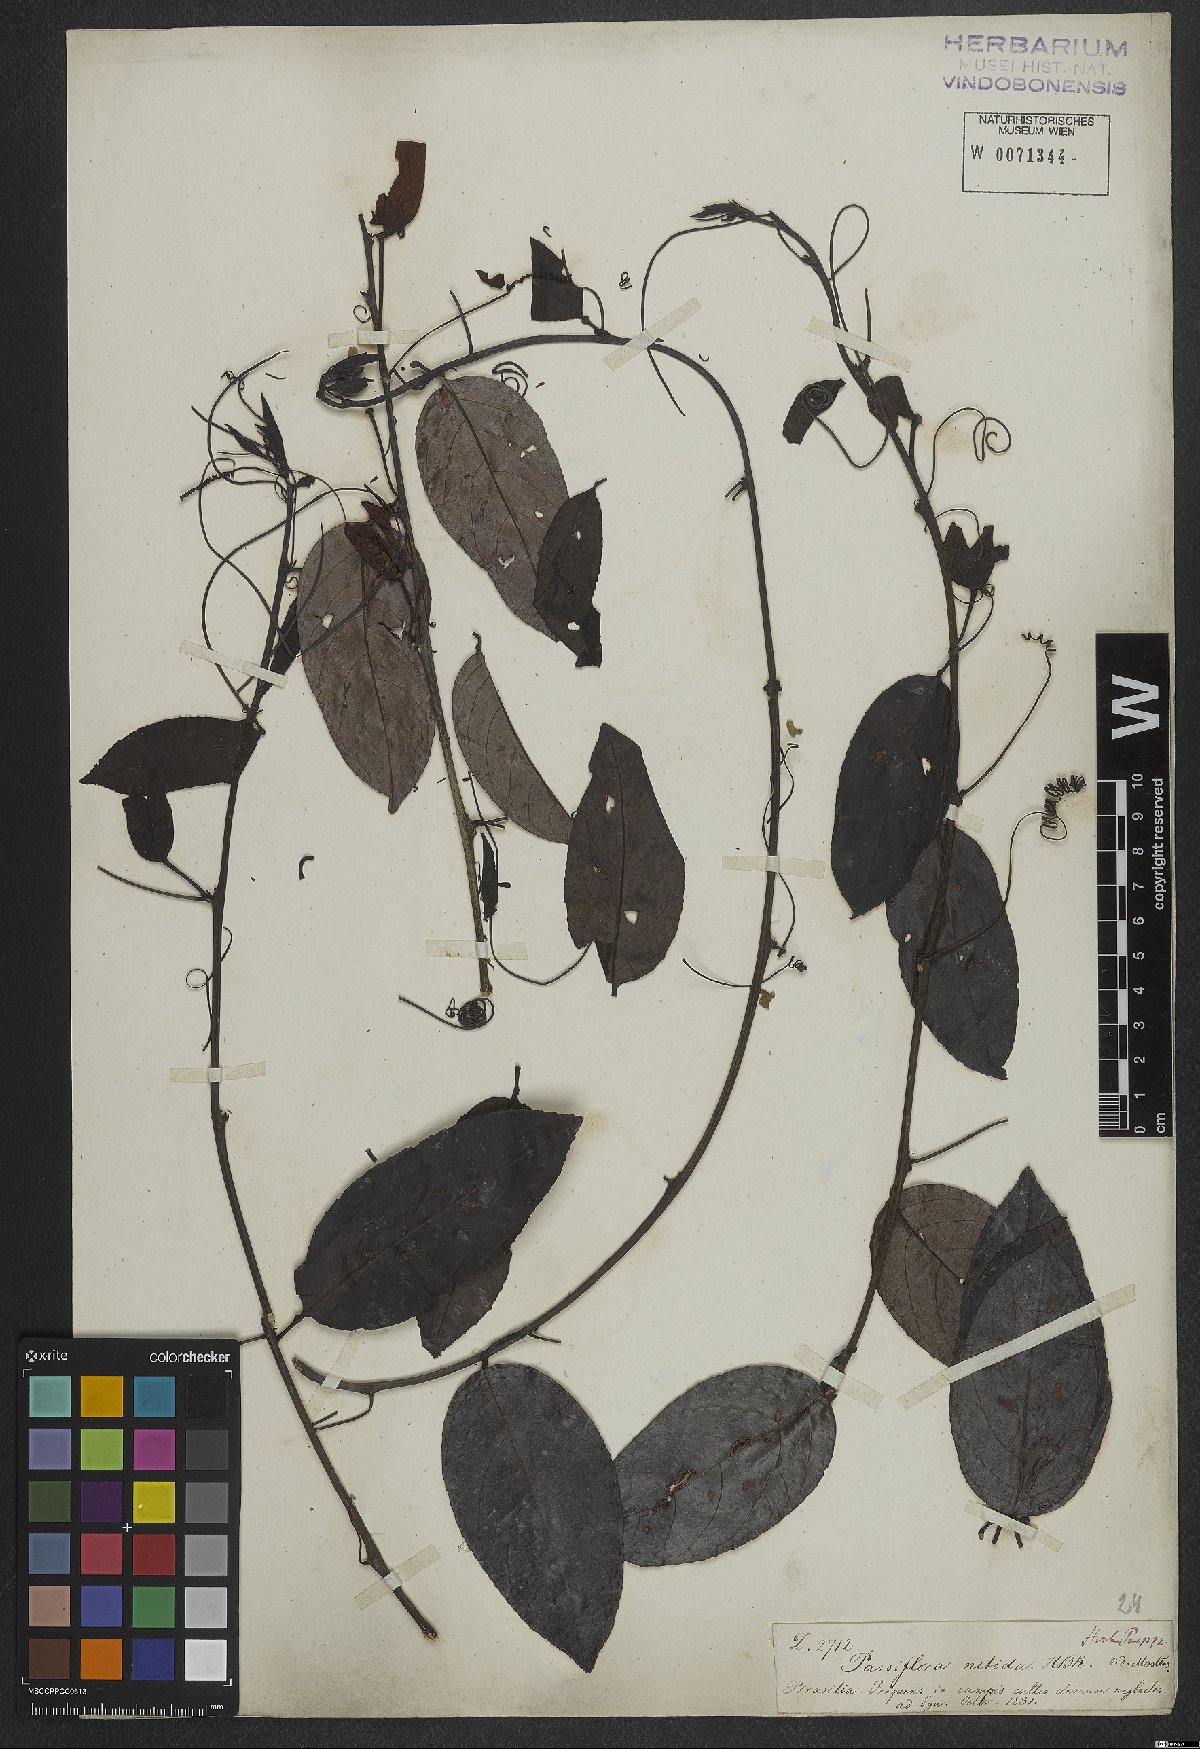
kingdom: Plantae
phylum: Tracheophyta
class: Magnoliopsida
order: Malpighiales
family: Passifloraceae
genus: Passiflora
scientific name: Passiflora nitida
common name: Bell-apple
